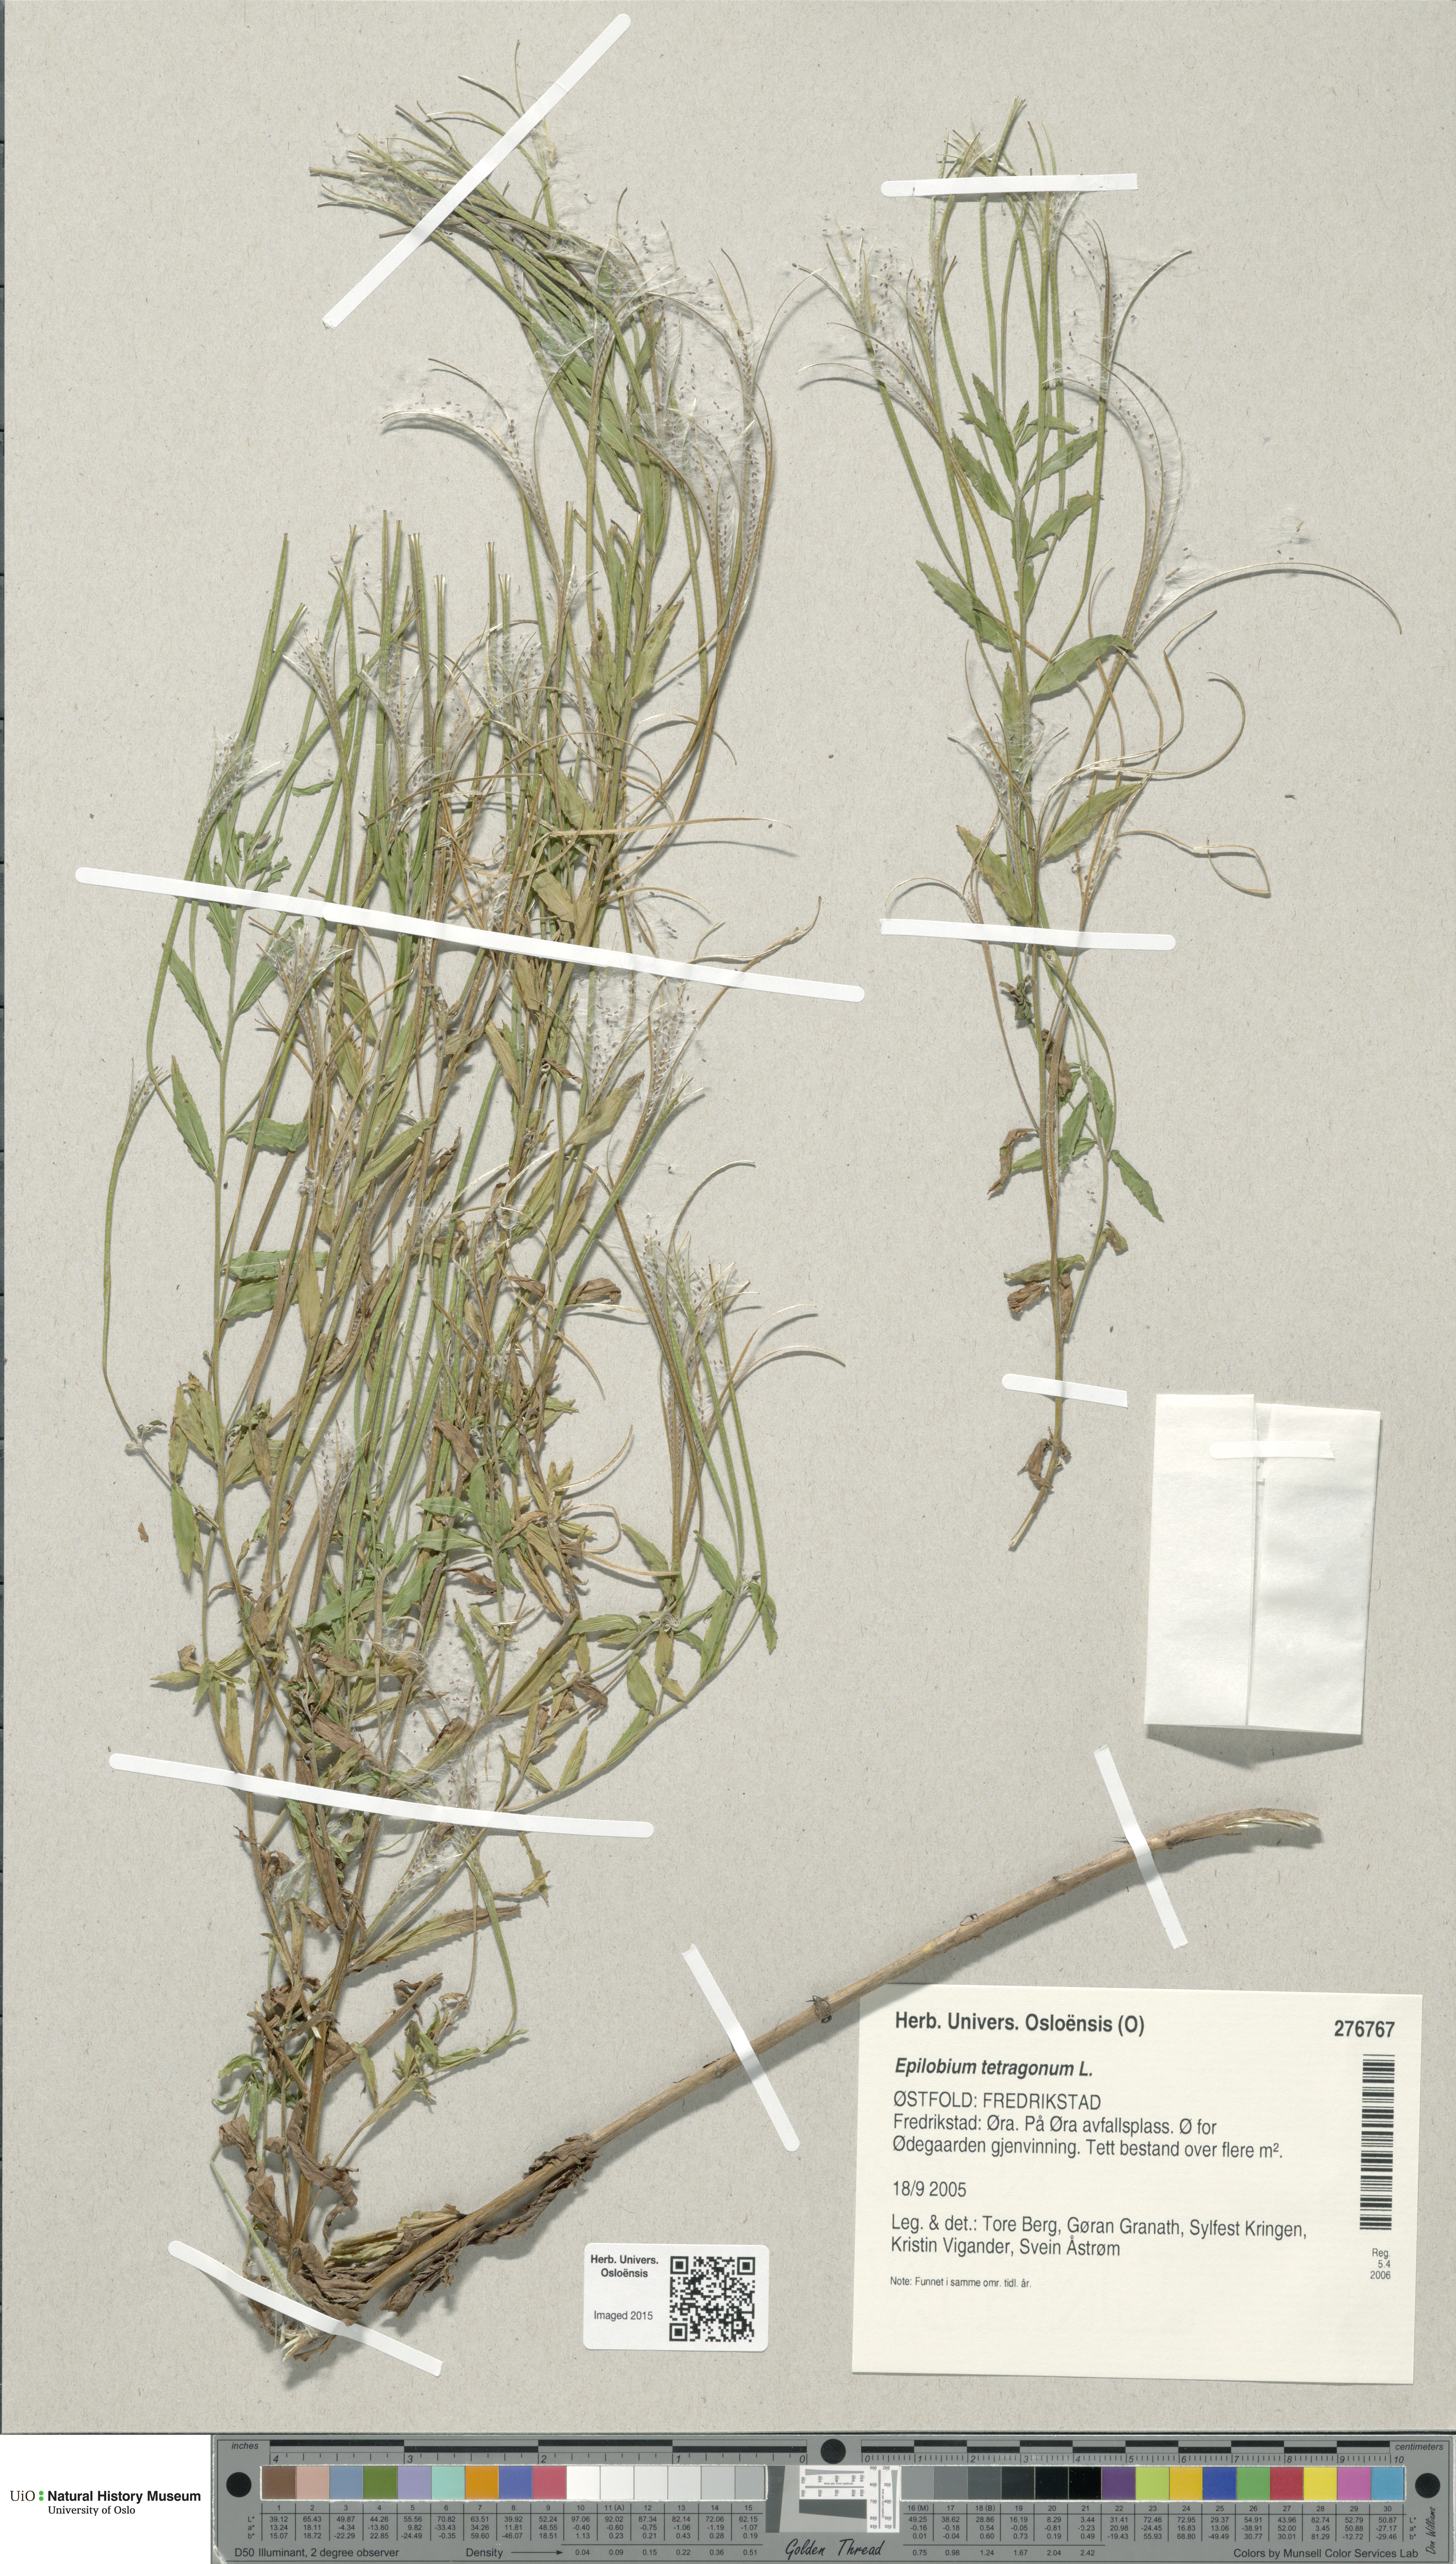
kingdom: Plantae
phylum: Tracheophyta
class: Magnoliopsida
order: Myrtales
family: Onagraceae
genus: Epilobium
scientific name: Epilobium tetragonum
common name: Square-stemmed willowherb
